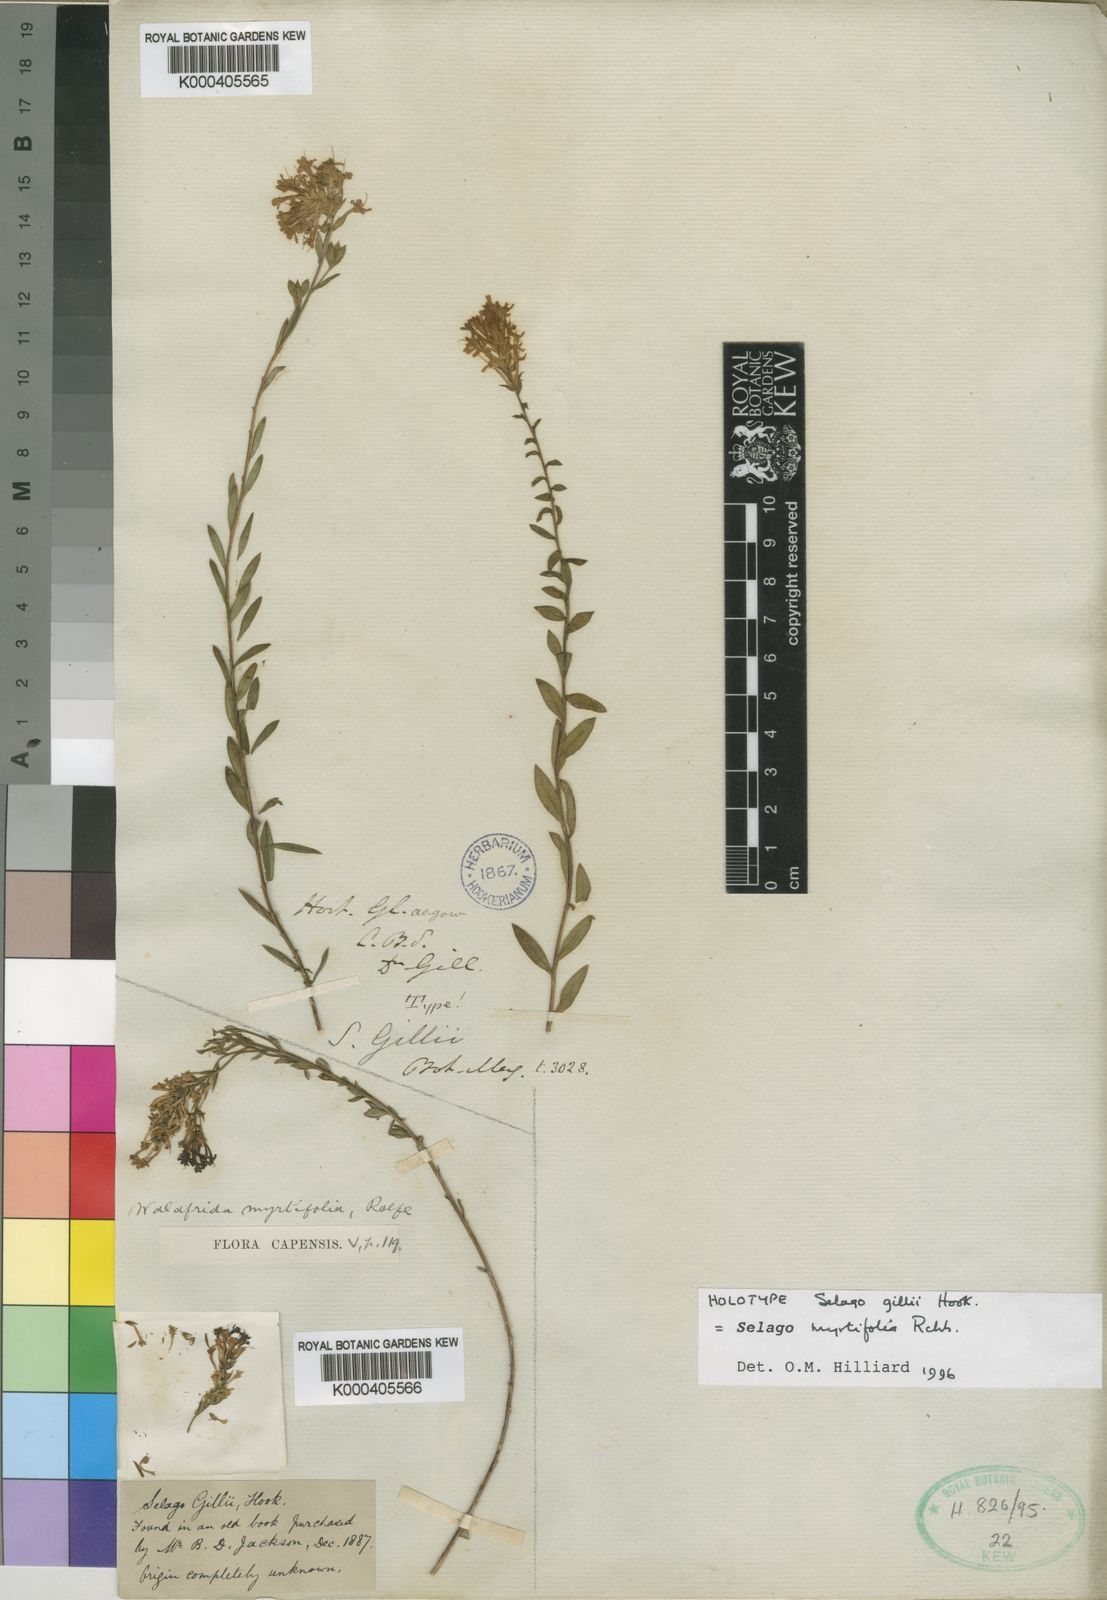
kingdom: Plantae
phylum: Tracheophyta
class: Magnoliopsida
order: Lamiales
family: Scrophulariaceae
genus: Selago
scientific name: Selago myrtifolia
